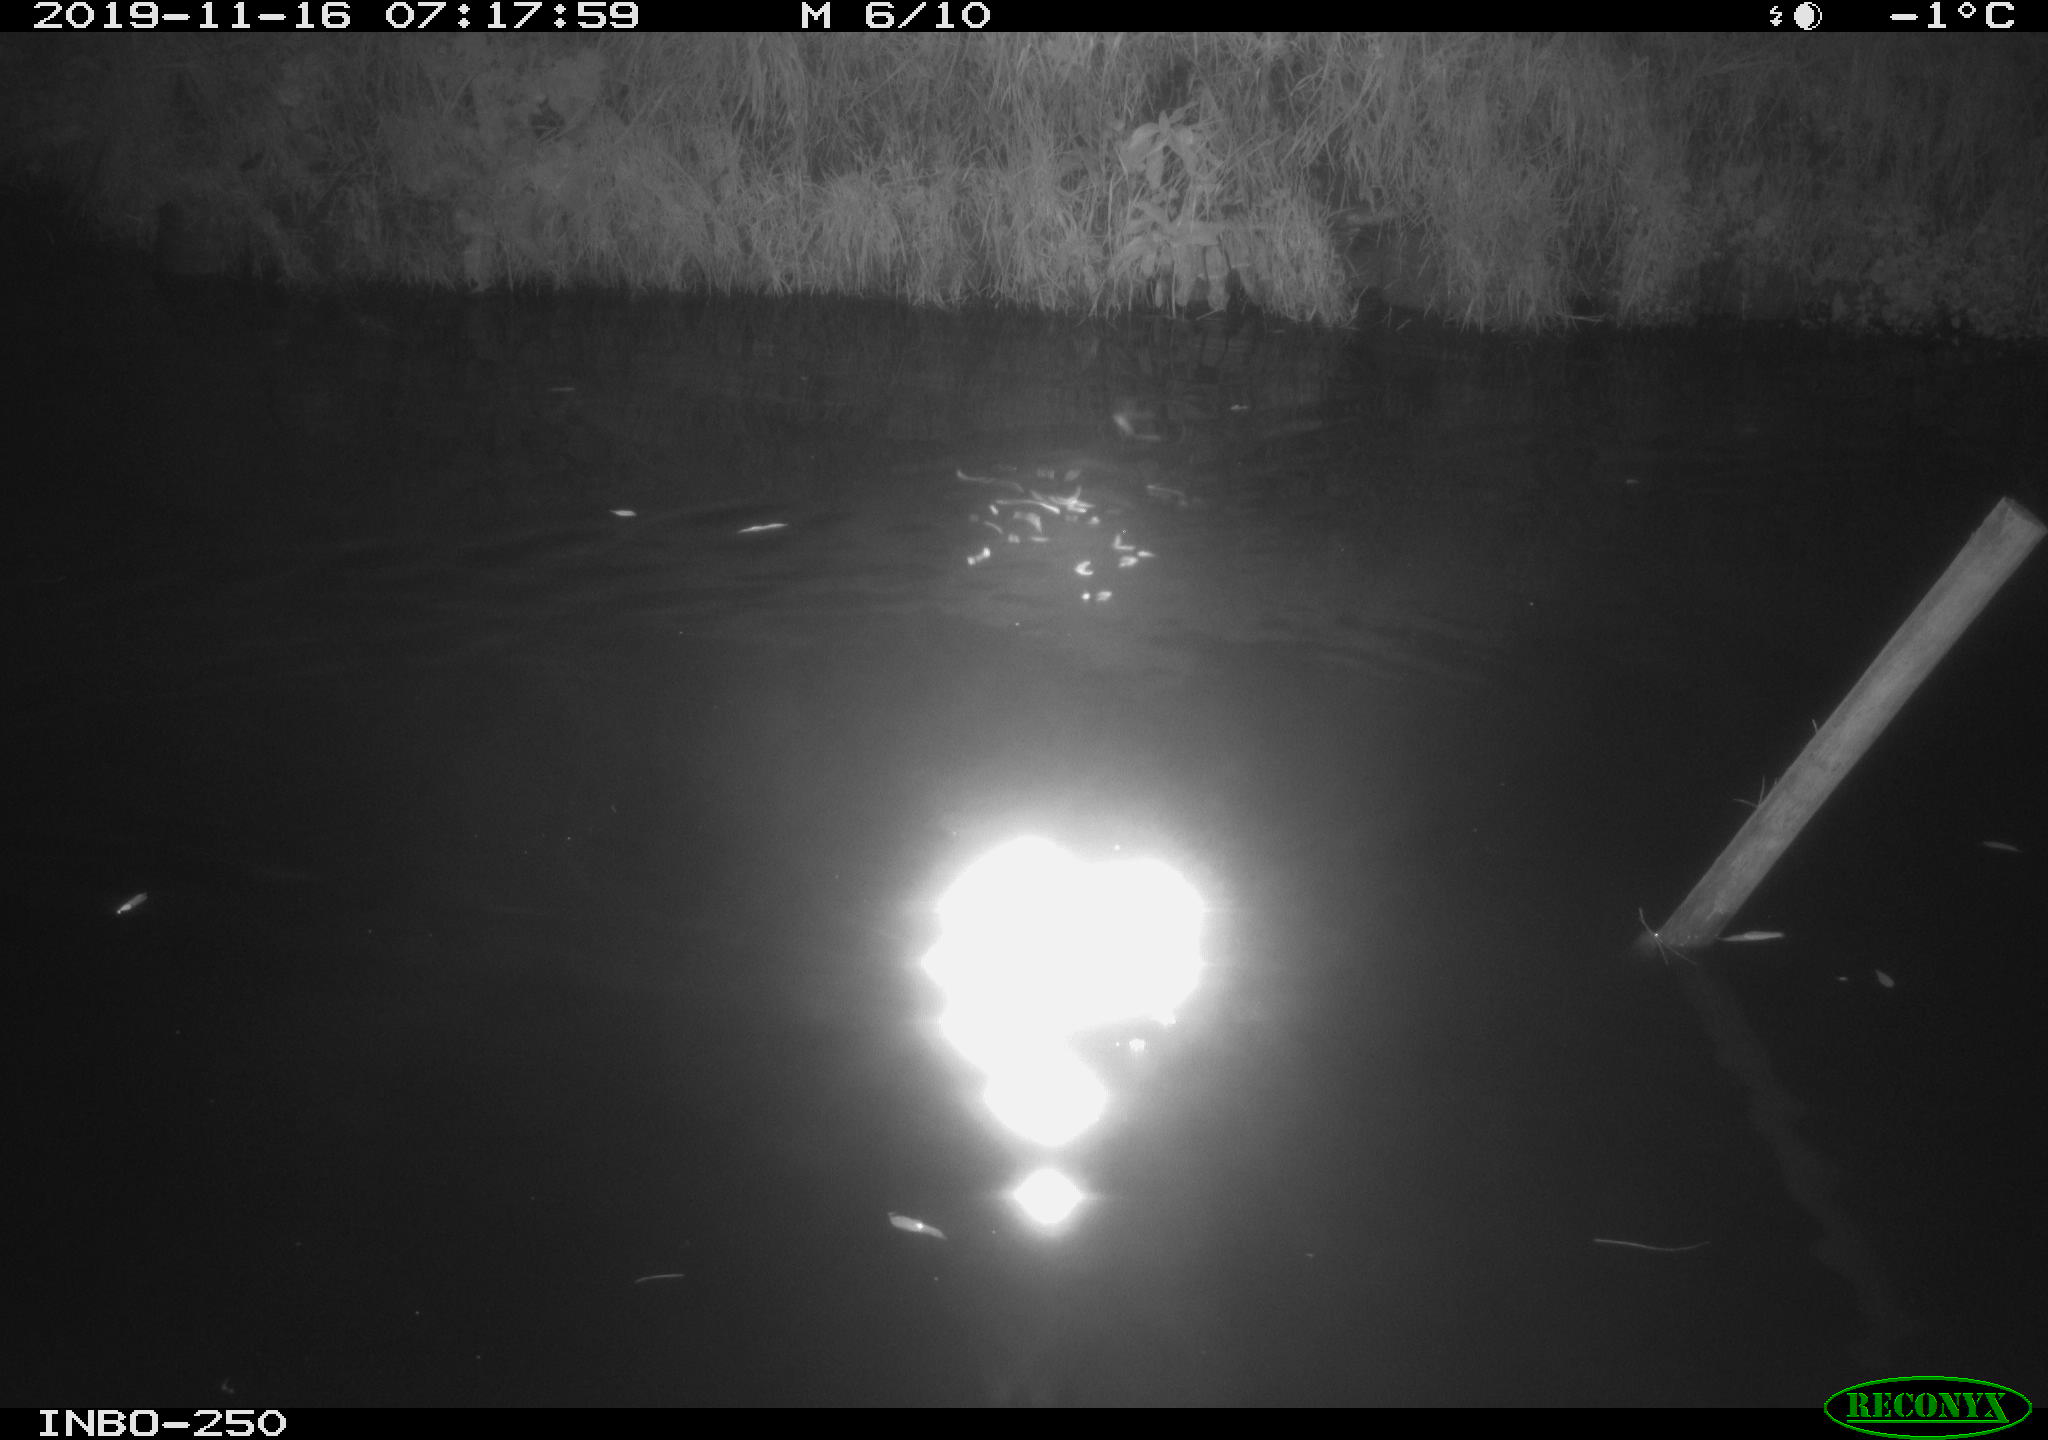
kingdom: Animalia
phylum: Chordata
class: Aves
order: Anseriformes
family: Anatidae
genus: Anas
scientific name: Anas platyrhynchos
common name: Mallard
